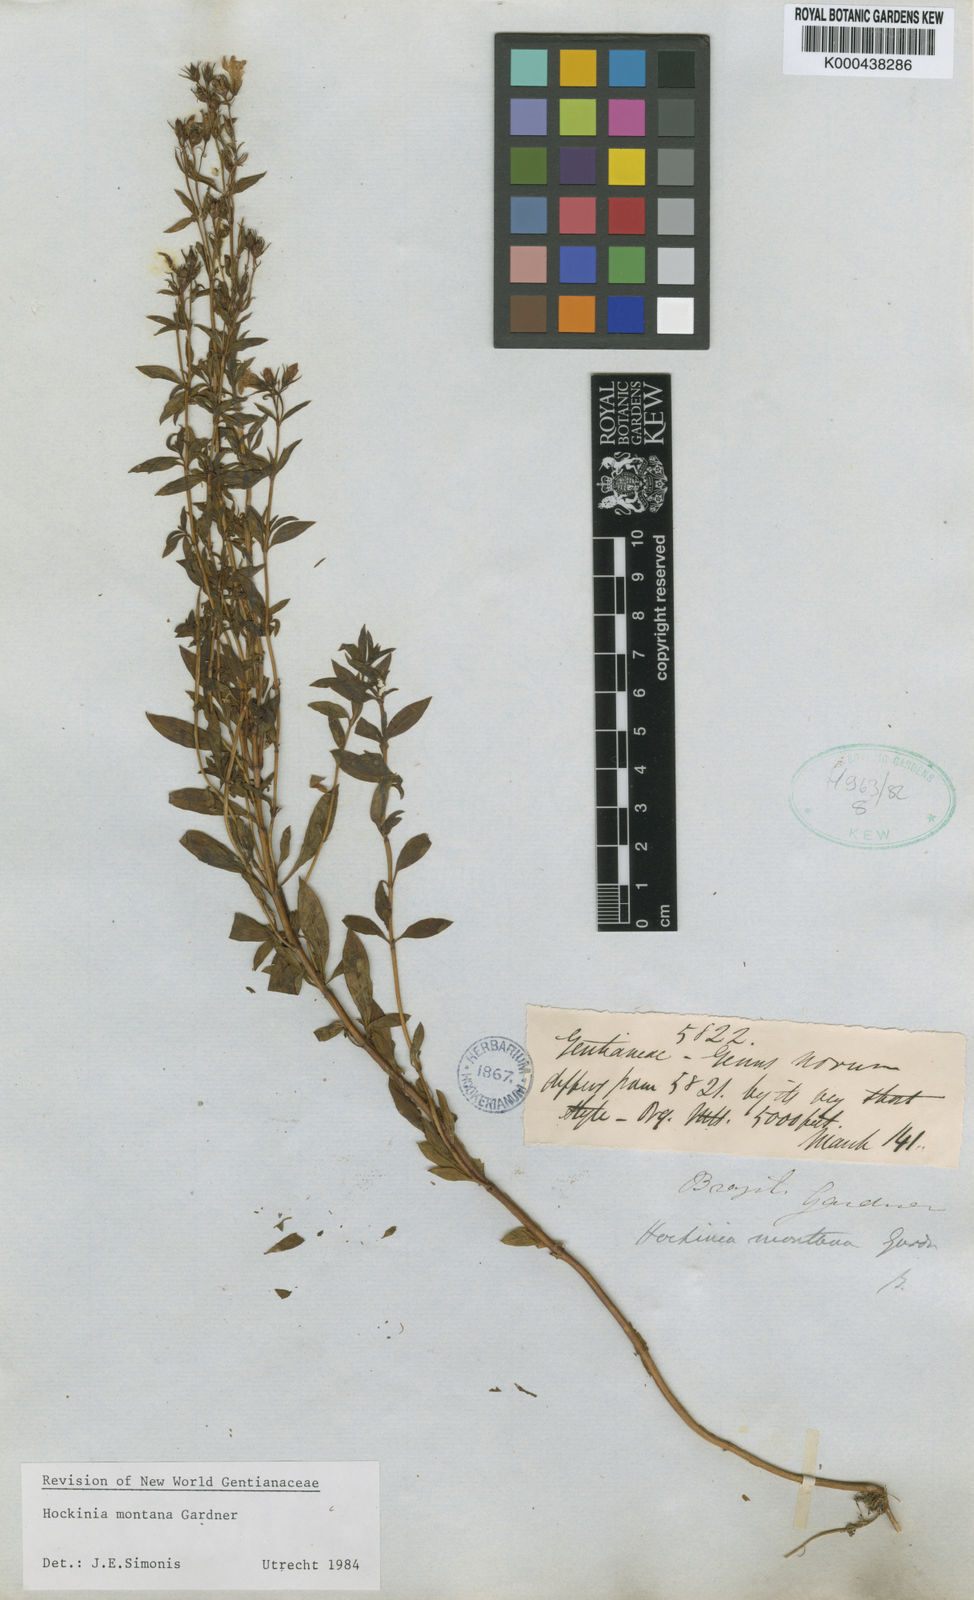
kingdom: Plantae
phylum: Tracheophyta
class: Magnoliopsida
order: Gentianales
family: Gentianaceae
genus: Hockinia
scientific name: Hockinia montana
